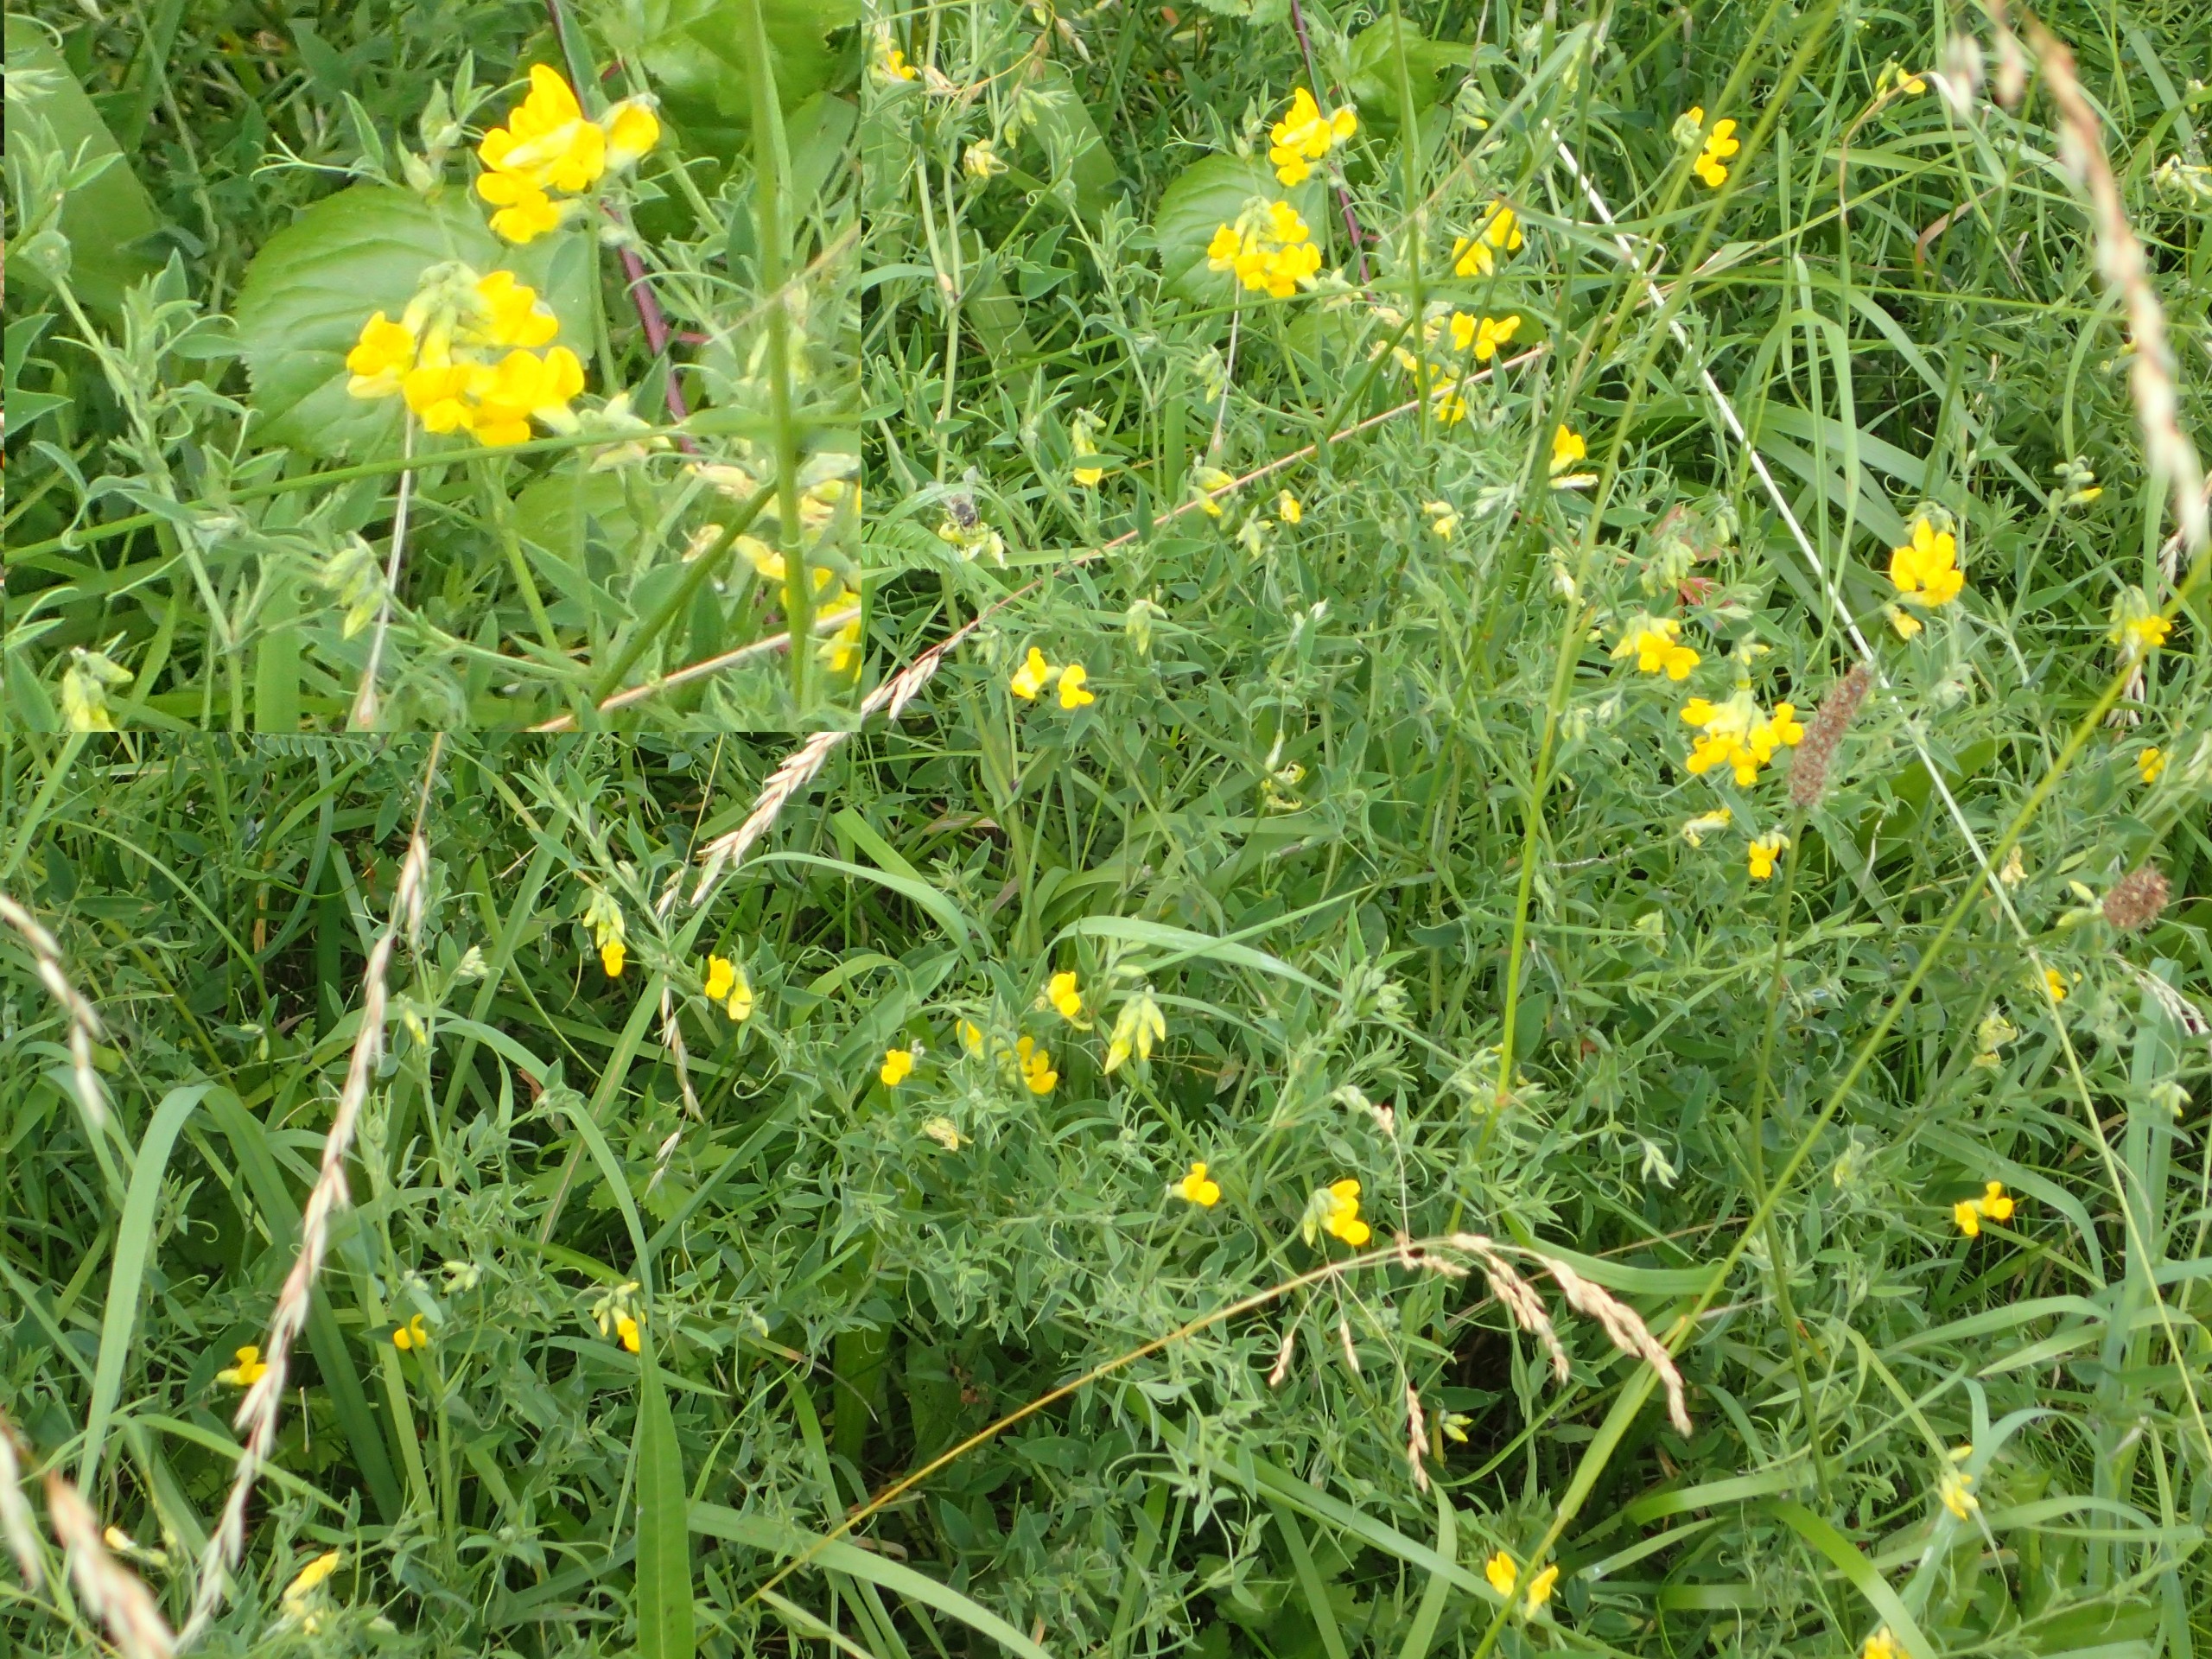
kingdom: Plantae
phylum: Tracheophyta
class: Magnoliopsida
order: Fabales
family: Fabaceae
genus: Lathyrus
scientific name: Lathyrus pratensis
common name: Gul fladbælg
